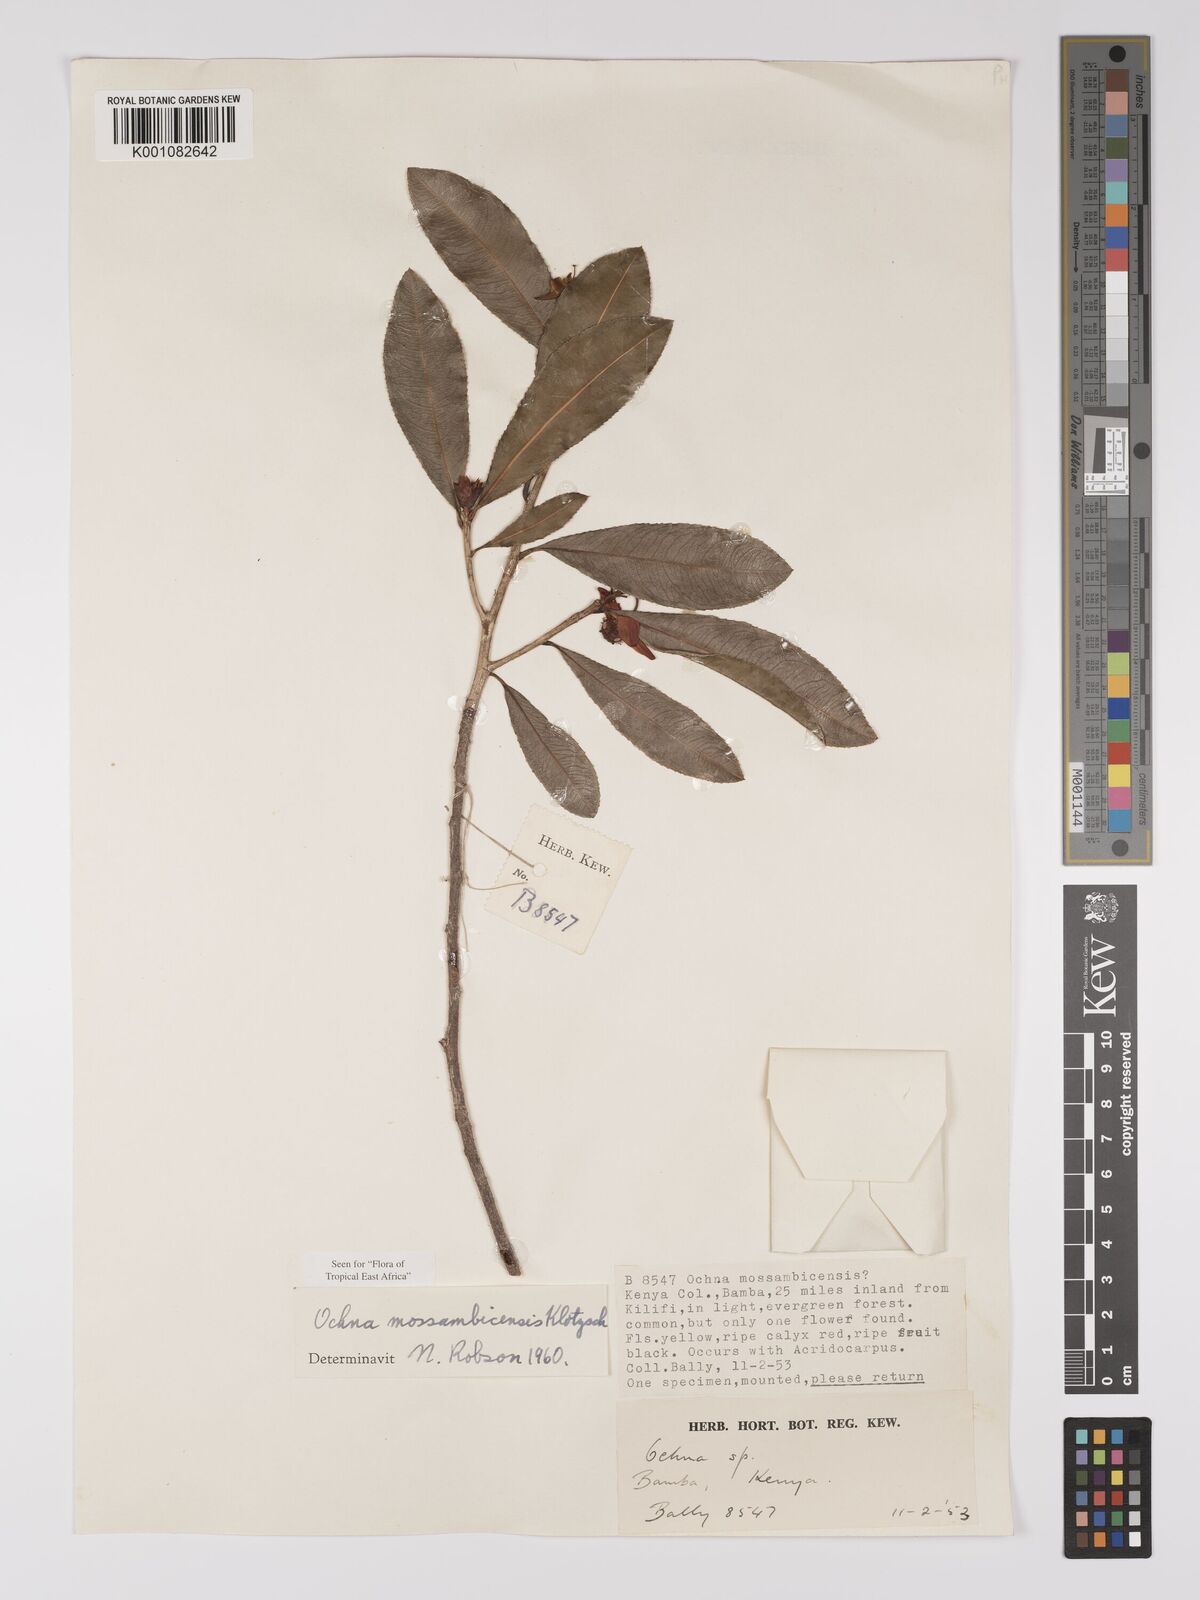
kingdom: Plantae
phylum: Tracheophyta
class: Magnoliopsida
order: Malpighiales
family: Ochnaceae
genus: Ochna
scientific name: Ochna atropurpurea
